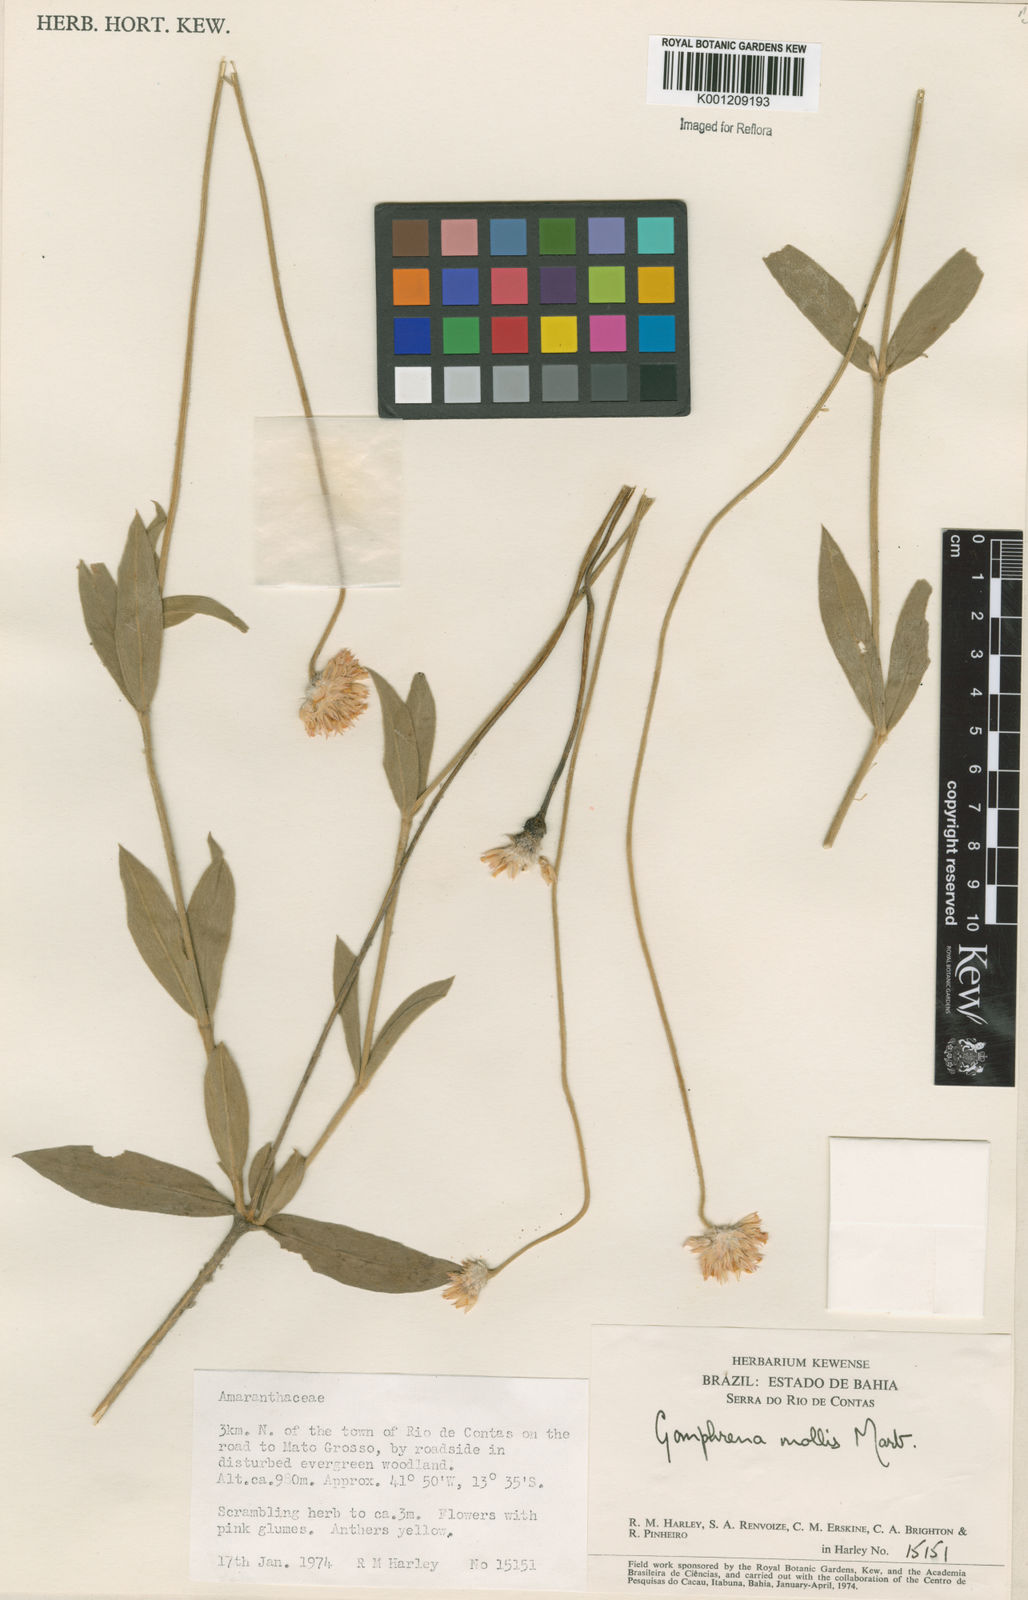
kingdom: Plantae
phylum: Tracheophyta
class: Magnoliopsida
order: Caryophyllales
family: Amaranthaceae
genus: Gomphrena
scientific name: Gomphrena mollis
